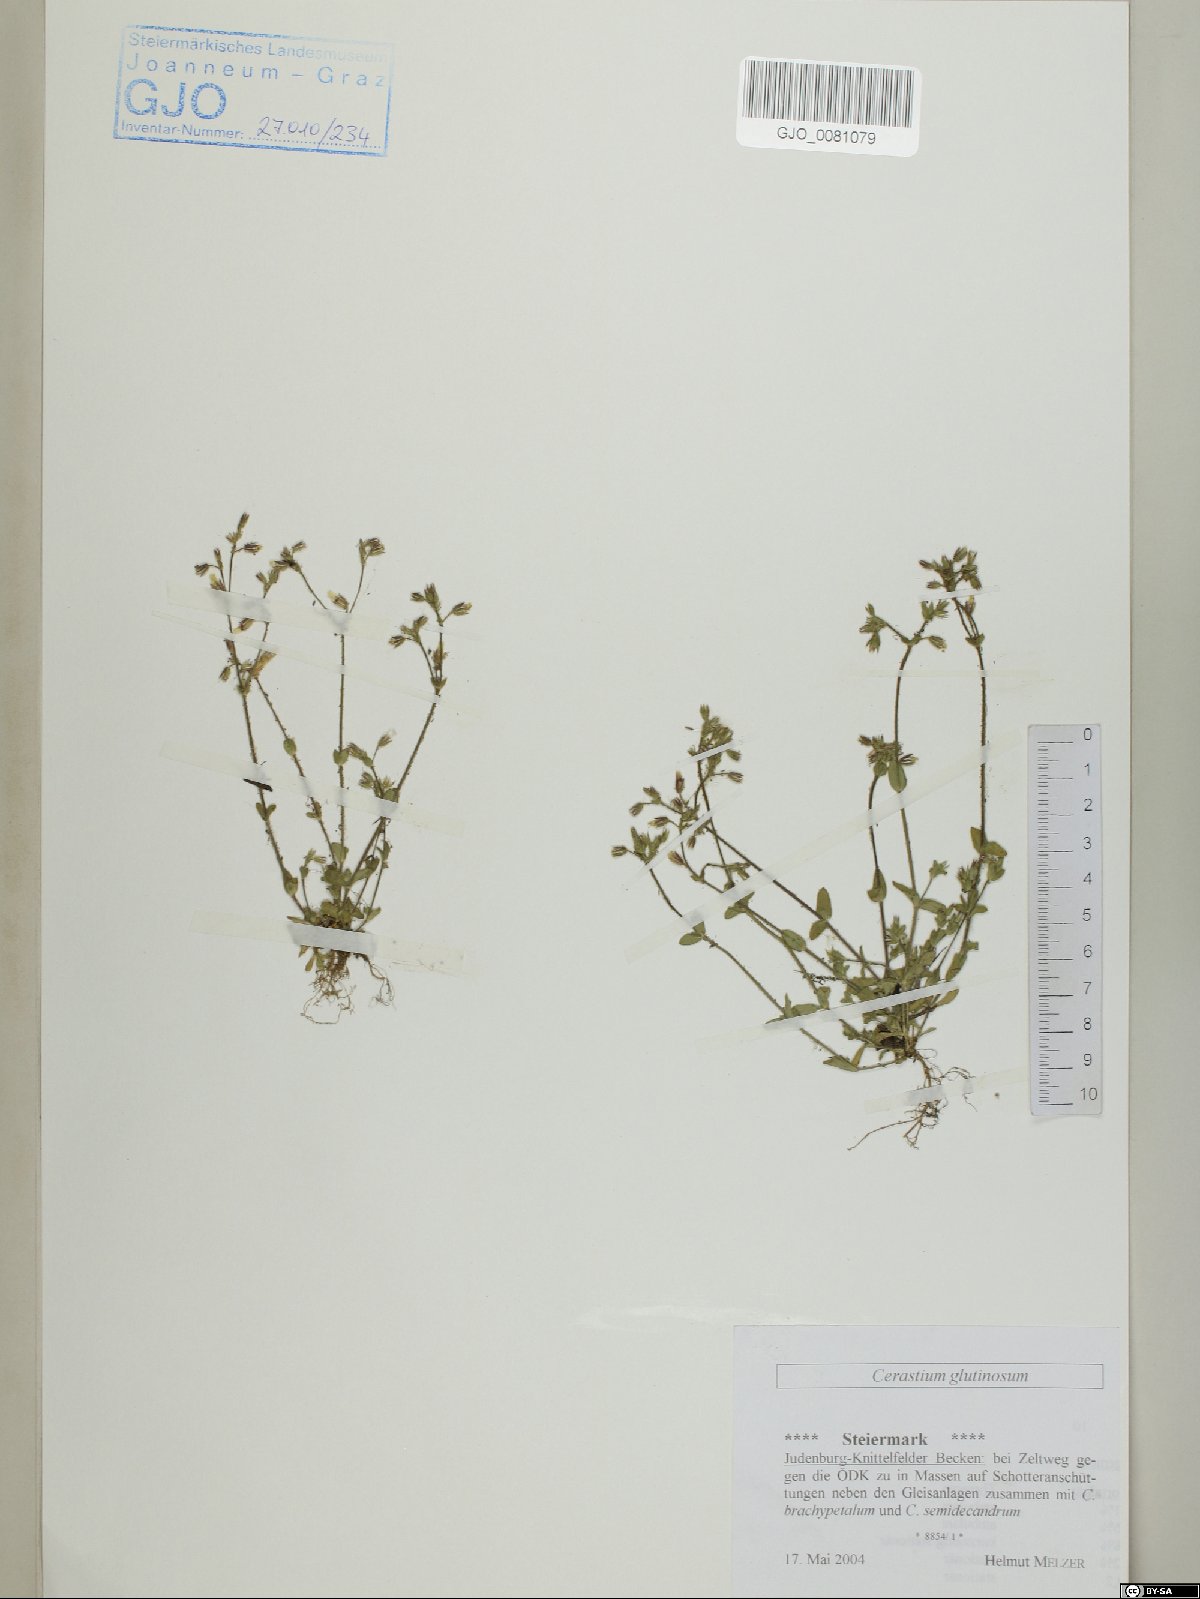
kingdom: Plantae
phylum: Tracheophyta
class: Magnoliopsida
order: Caryophyllales
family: Caryophyllaceae
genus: Cerastium
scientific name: Cerastium glutinosum
